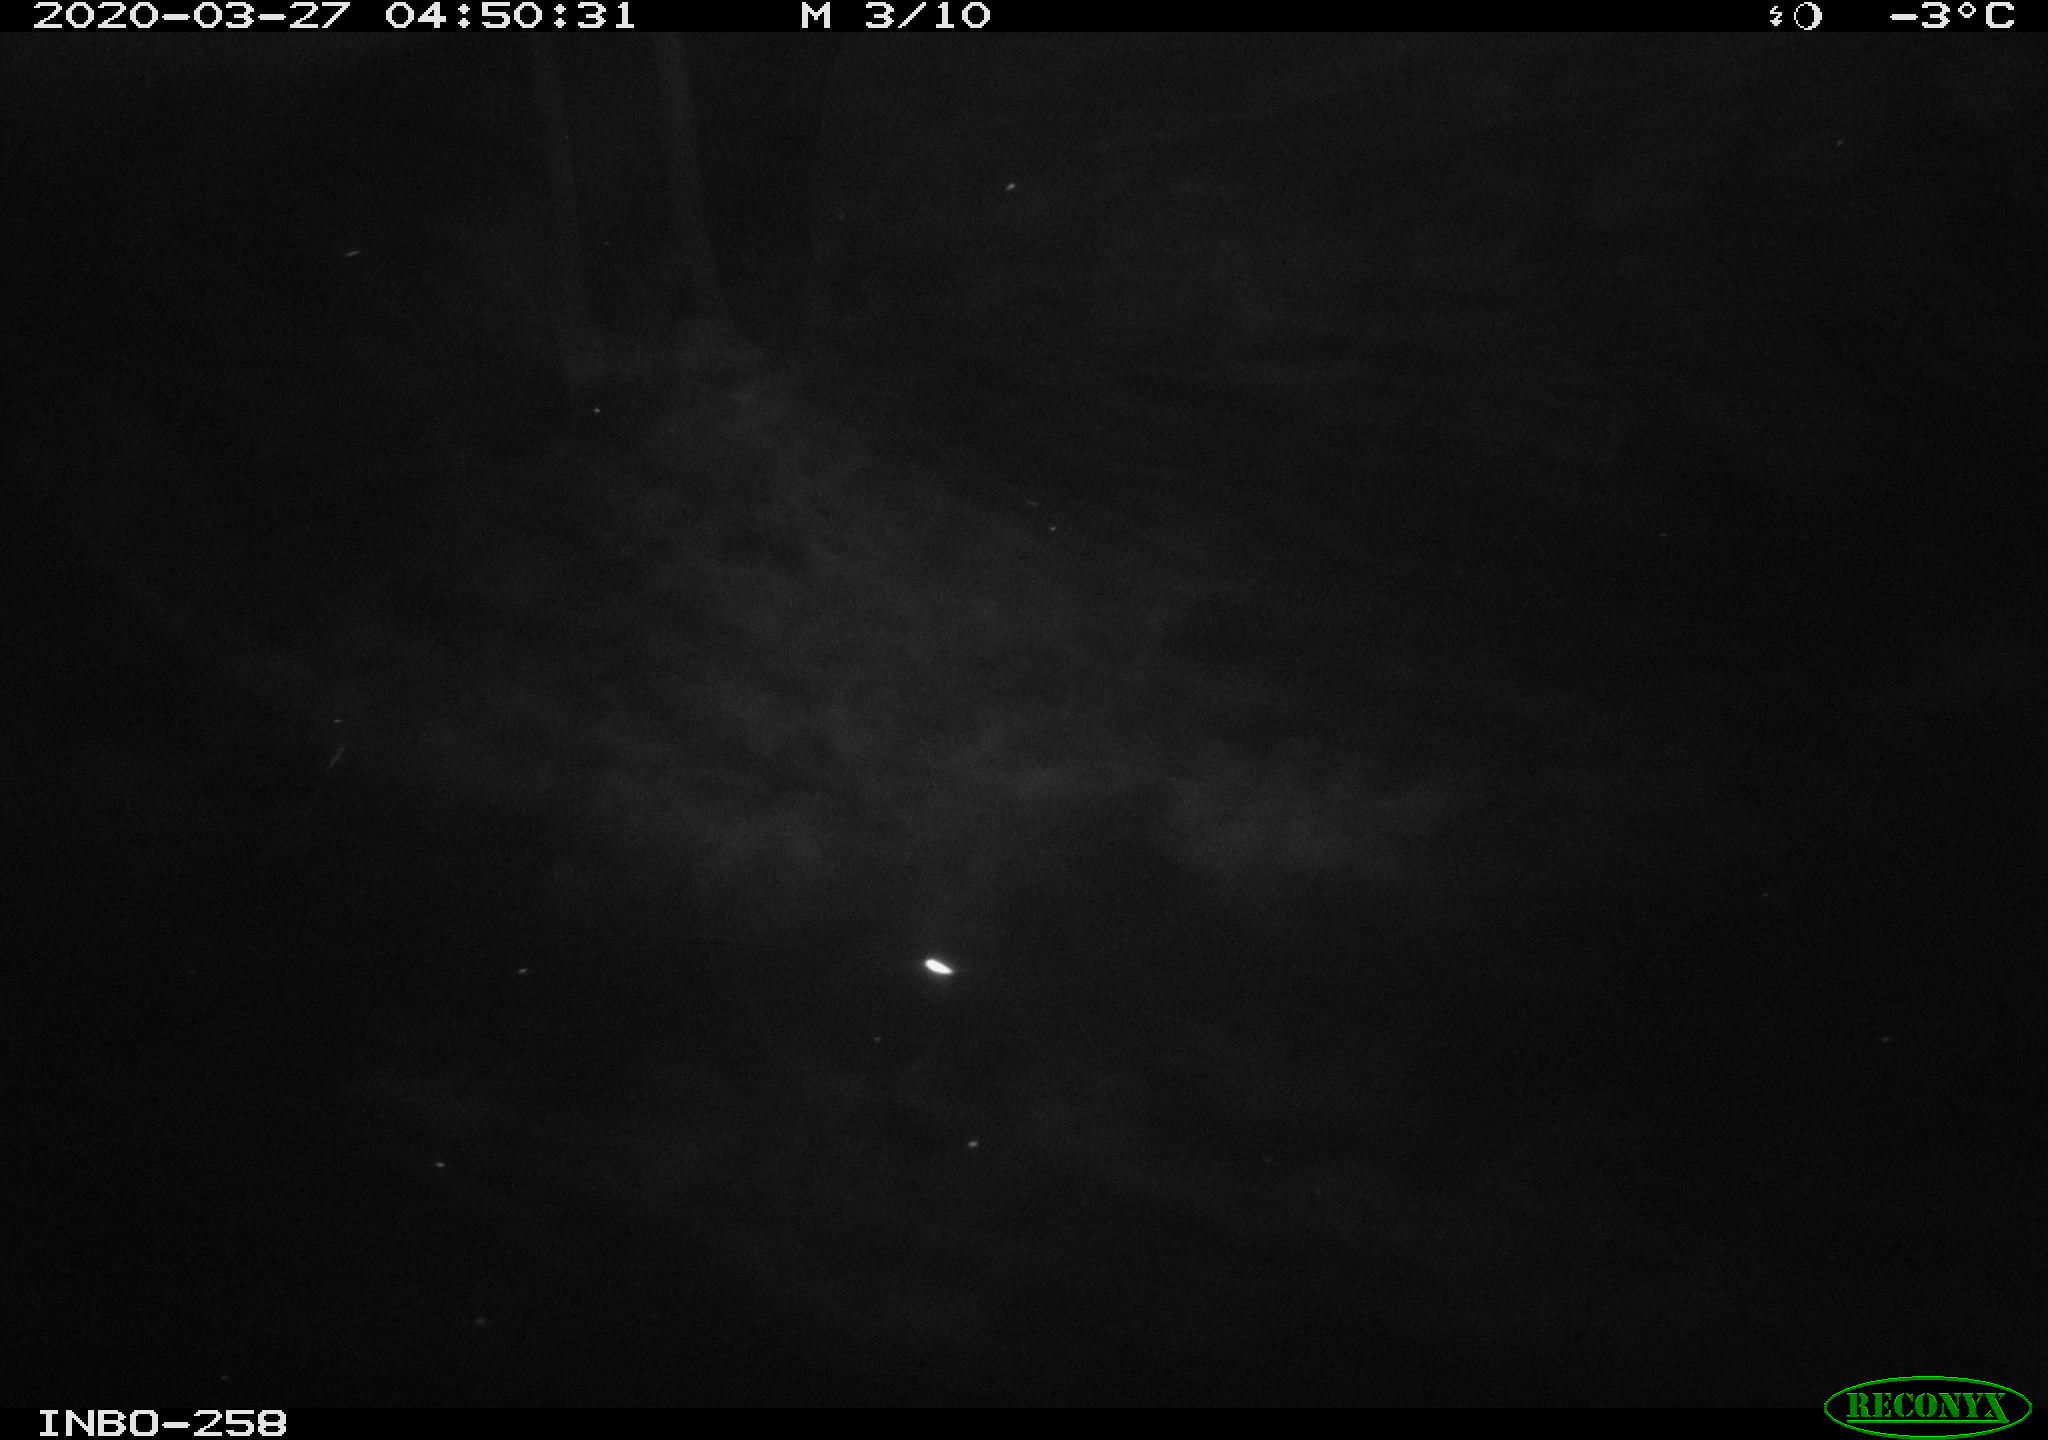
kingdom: Animalia
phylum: Chordata
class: Aves
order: Anseriformes
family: Anatidae
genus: Anas
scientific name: Anas platyrhynchos
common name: Mallard
